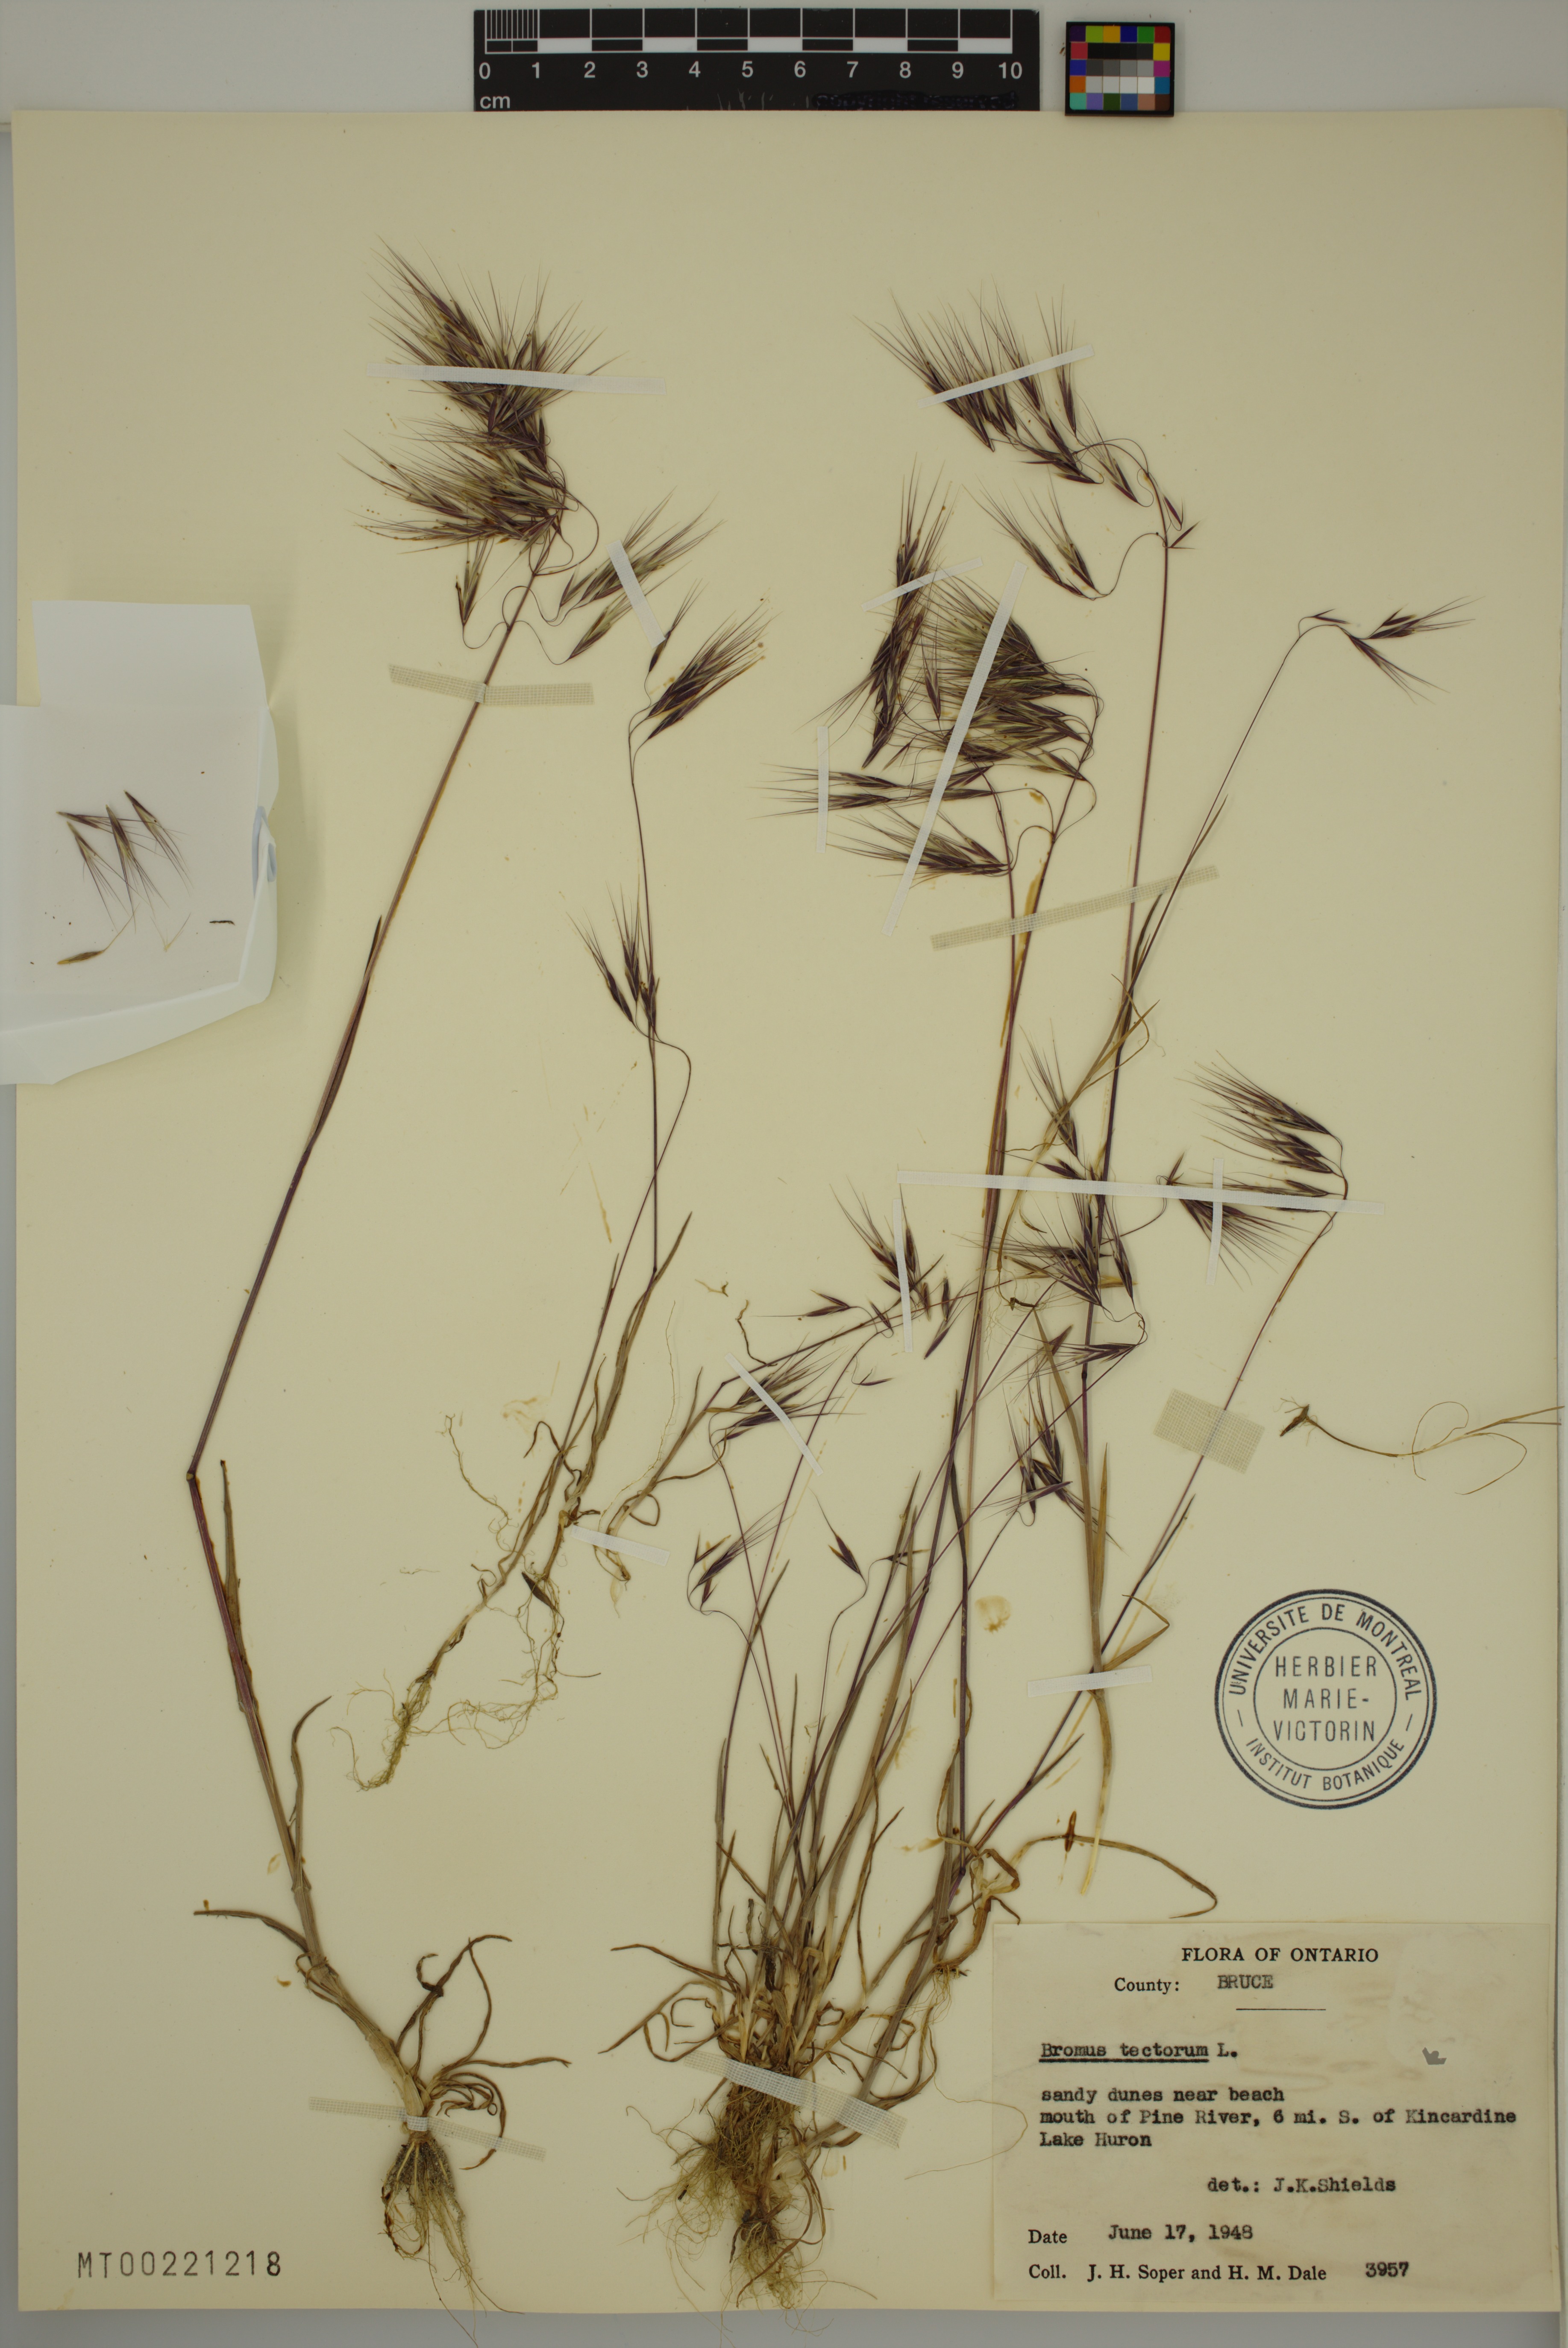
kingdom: Plantae
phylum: Tracheophyta
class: Liliopsida
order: Poales
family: Poaceae
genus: Bromus
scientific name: Bromus tectorum
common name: Cheatgrass
